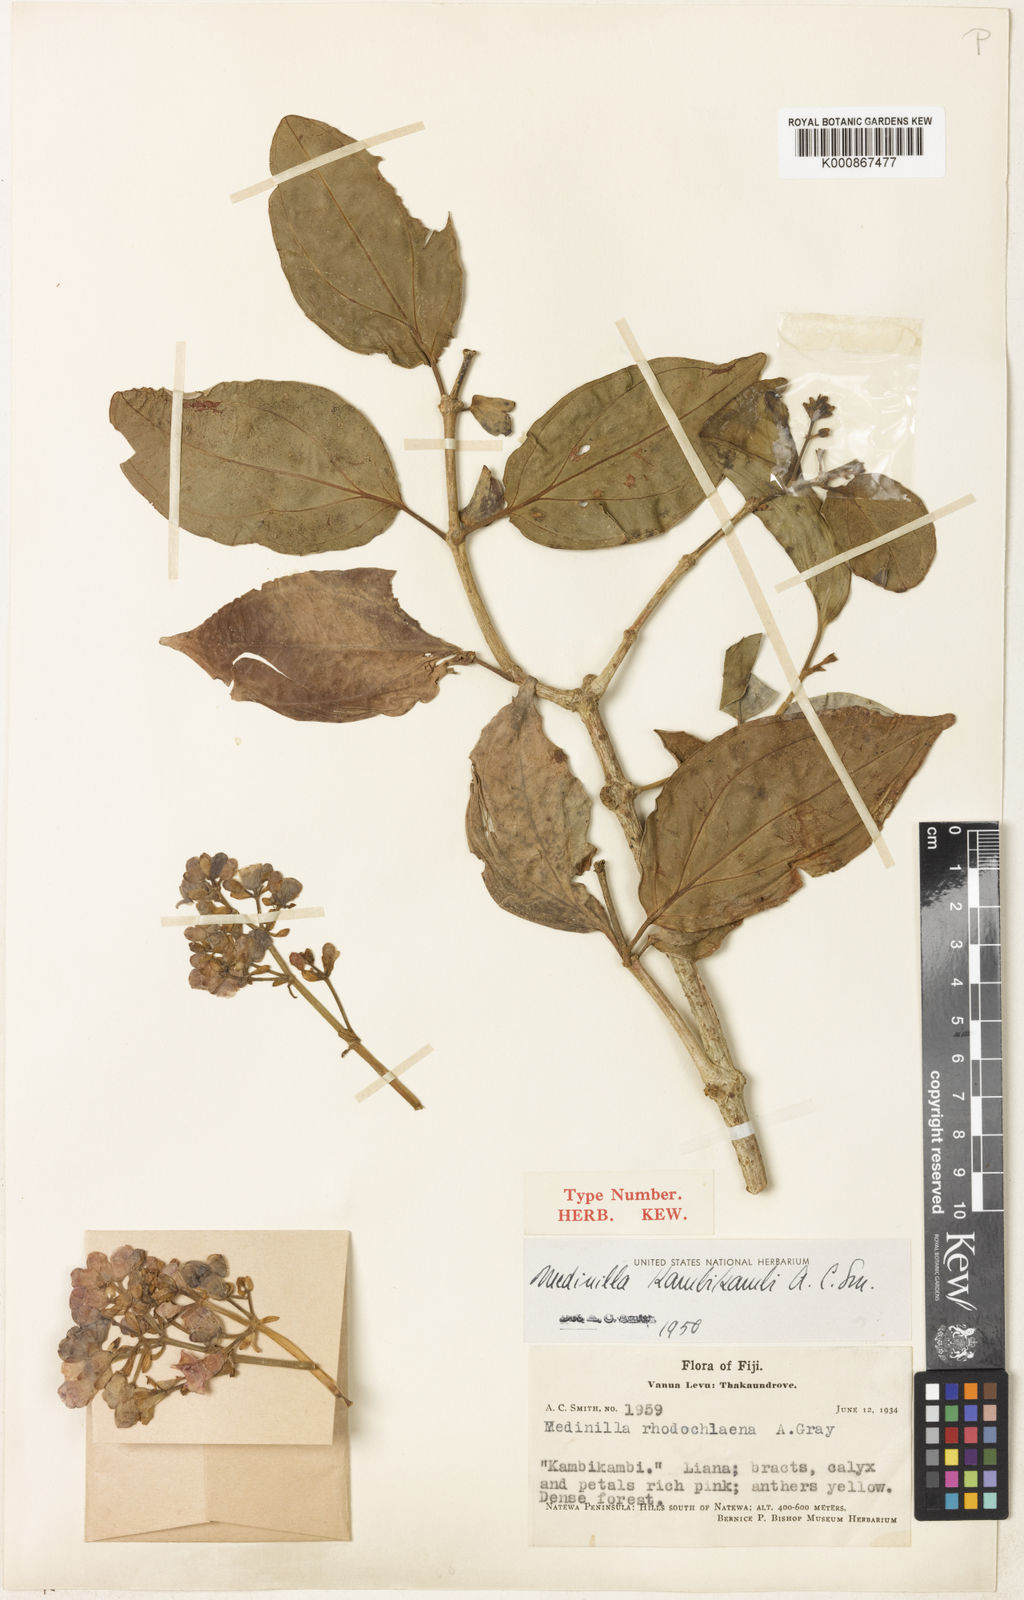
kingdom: Plantae
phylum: Tracheophyta
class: Magnoliopsida
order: Myrtales
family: Melastomataceae
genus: Medinilla
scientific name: Medinilla kambikambi
